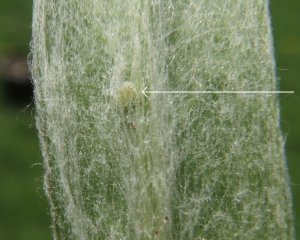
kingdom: Animalia
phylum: Arthropoda
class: Insecta
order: Lepidoptera
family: Nymphalidae
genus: Vanessa
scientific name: Vanessa virginiensis
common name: American Lady
